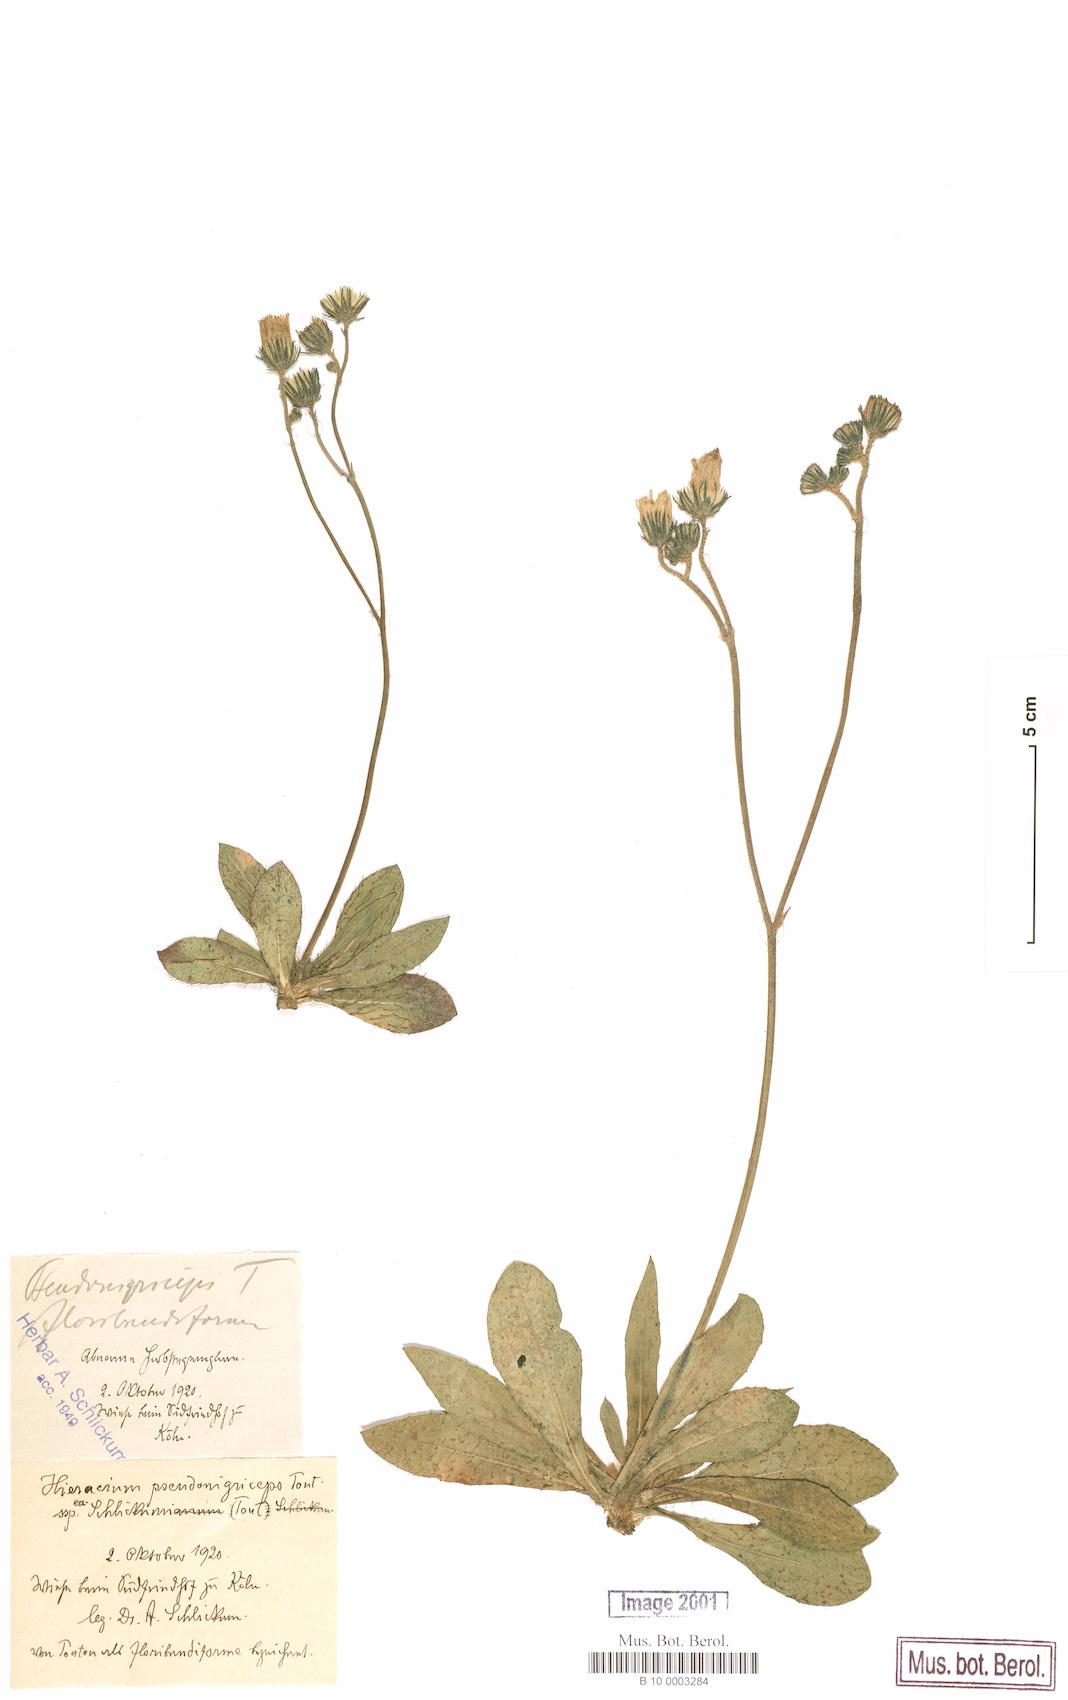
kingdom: Plantae
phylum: Tracheophyta
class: Magnoliopsida
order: Asterales
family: Asteraceae
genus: Pilosella
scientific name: Pilosella iserana
